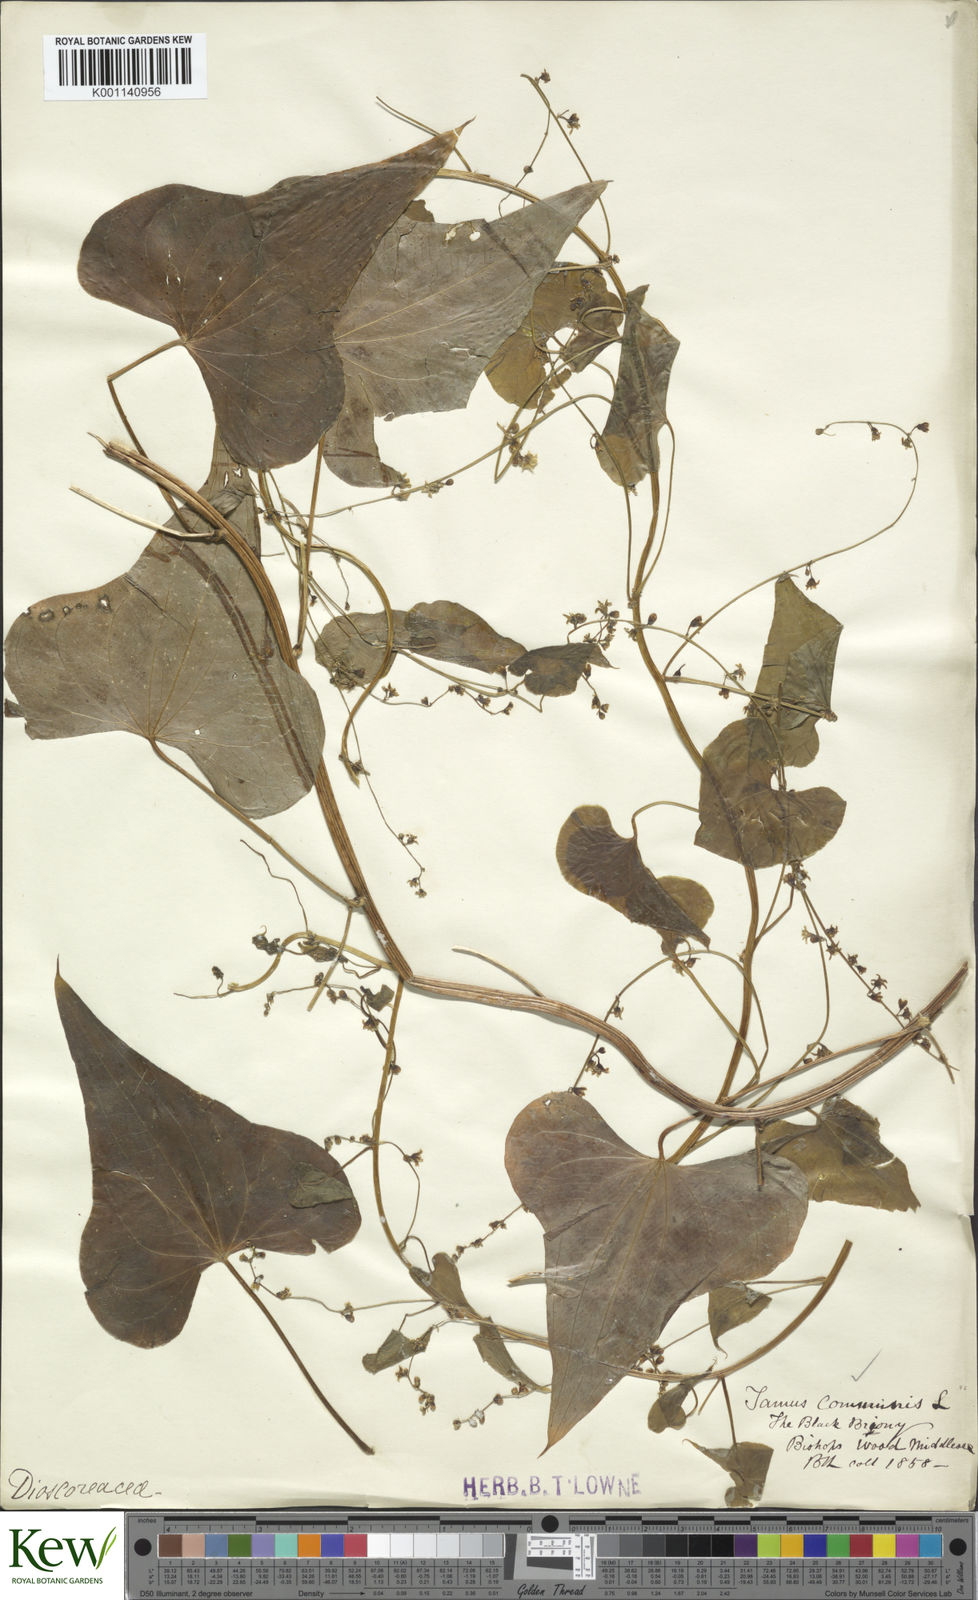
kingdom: Plantae
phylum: Tracheophyta
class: Liliopsida
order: Dioscoreales
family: Dioscoreaceae
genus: Dioscorea
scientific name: Dioscorea communis
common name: Black-bindweed
